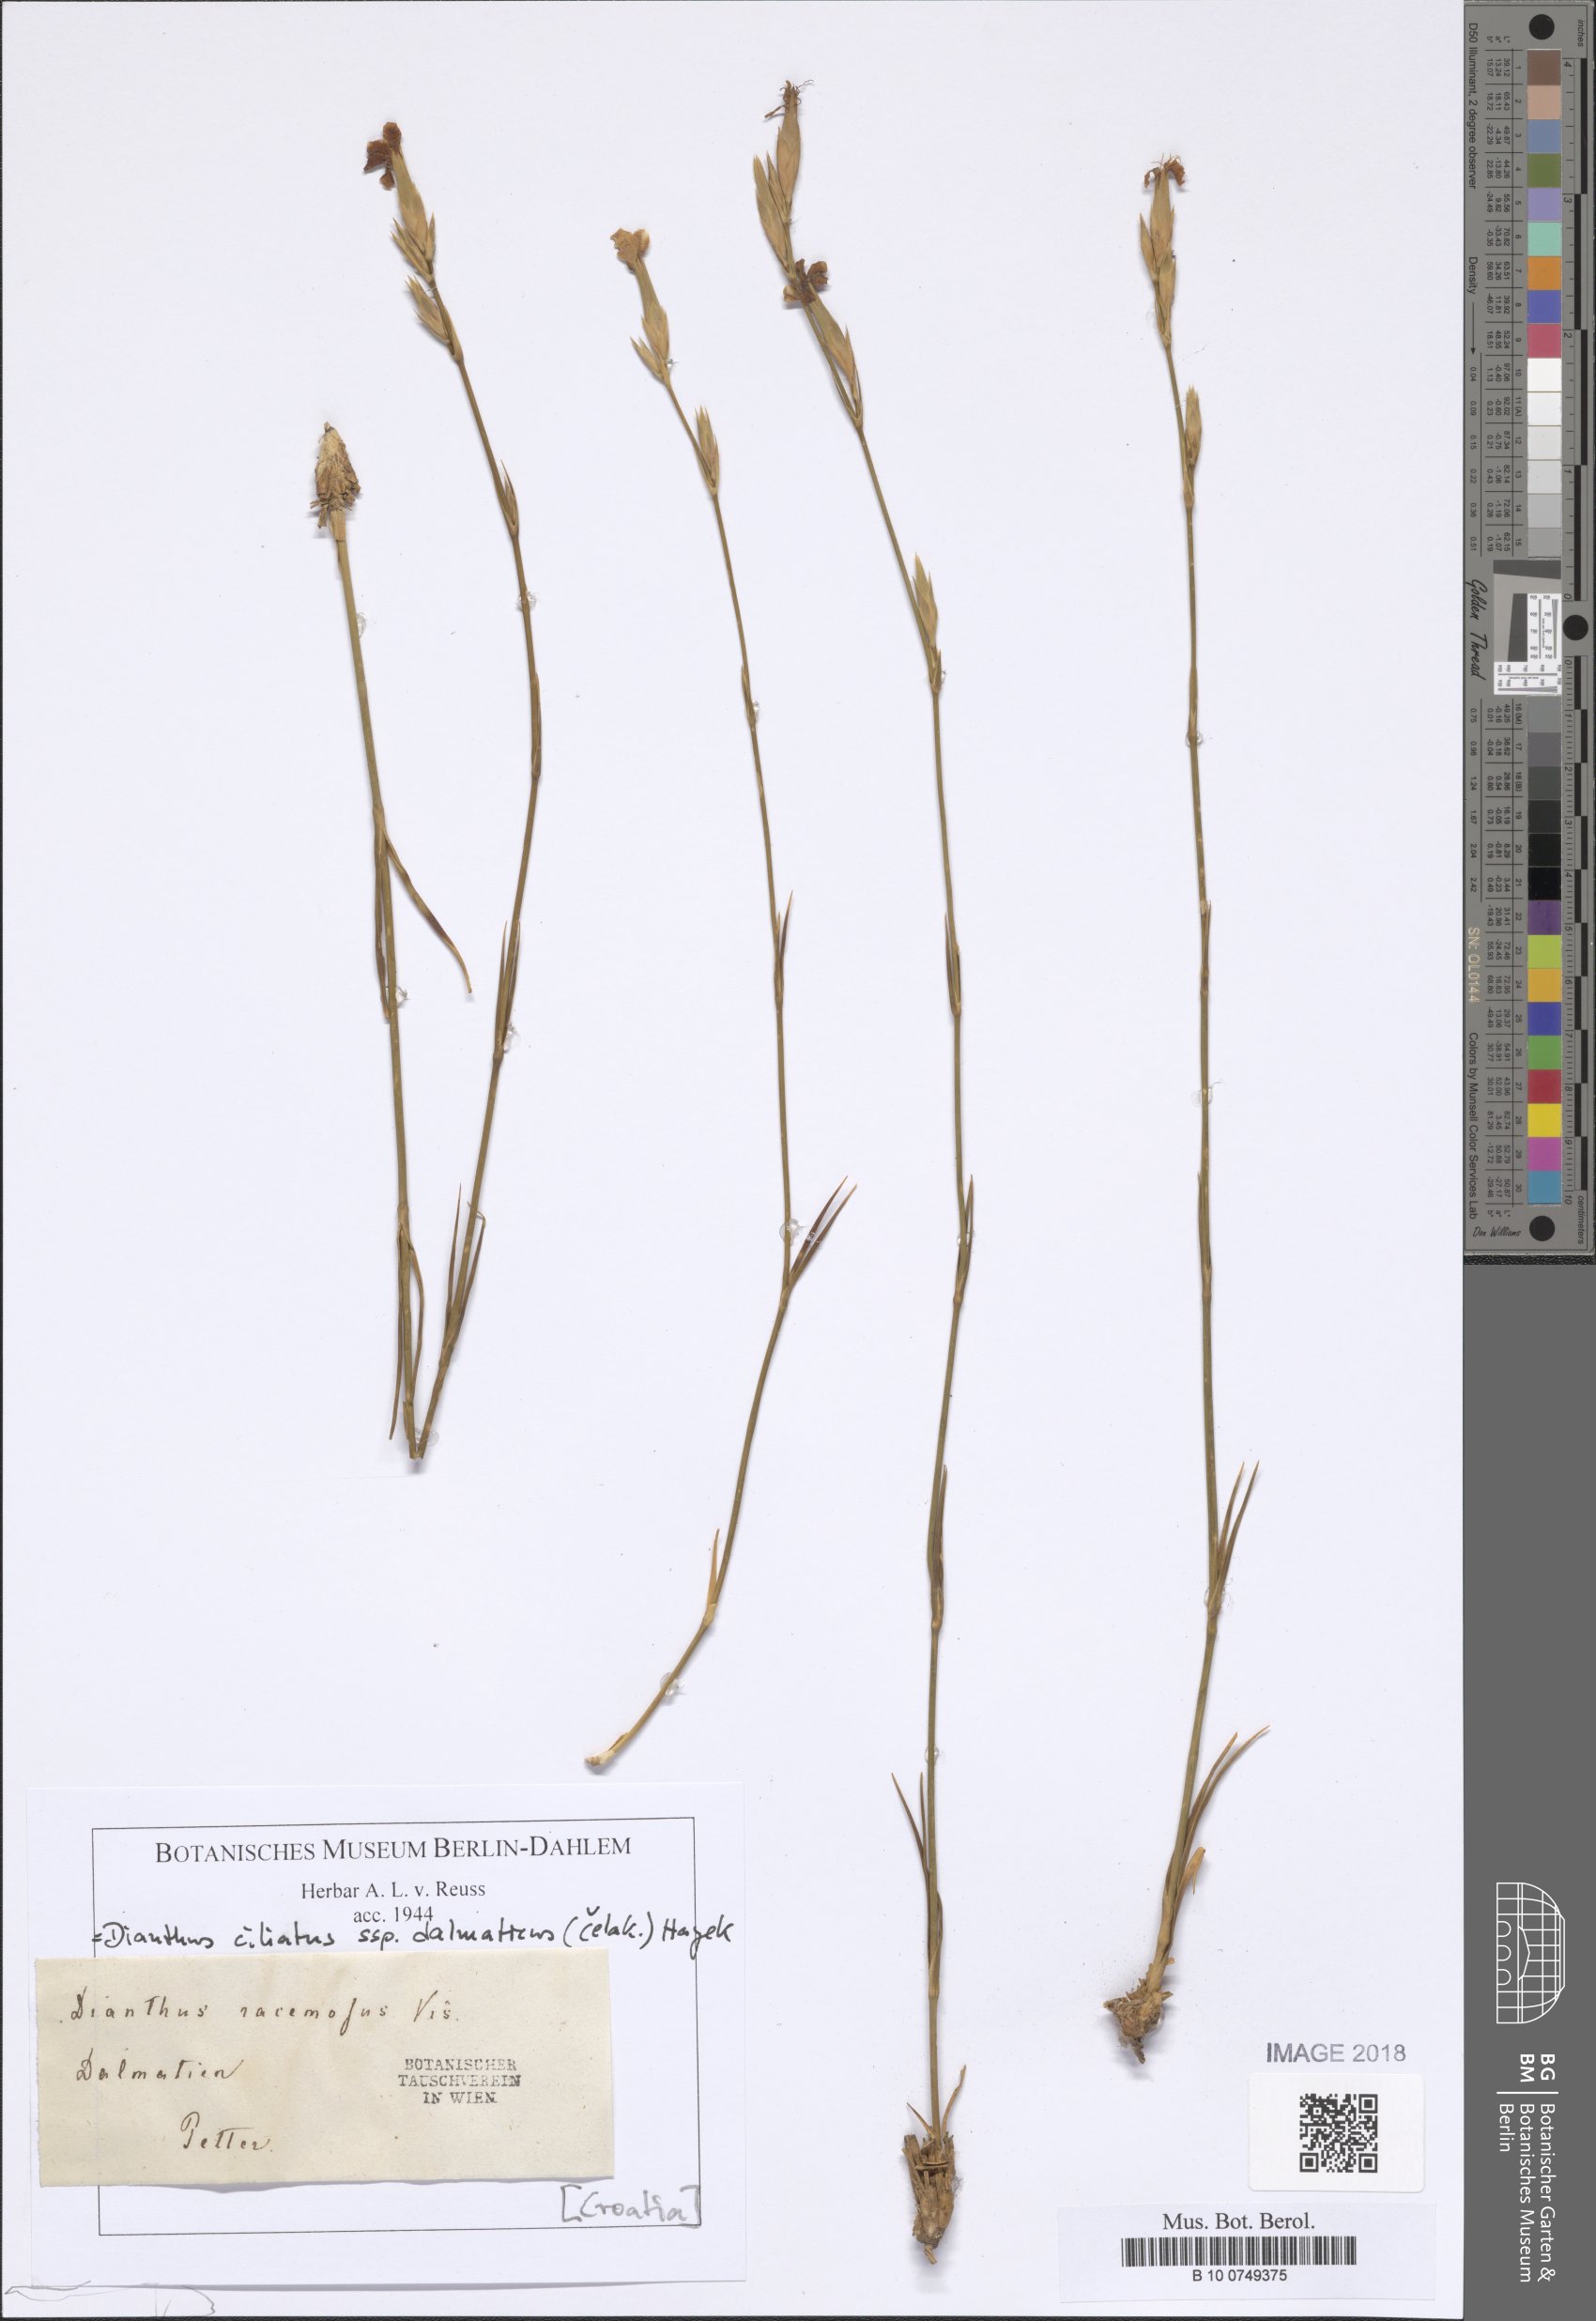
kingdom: Plantae
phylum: Tracheophyta
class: Magnoliopsida
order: Caryophyllales
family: Caryophyllaceae
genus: Dianthus
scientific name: Dianthus ciliatus
